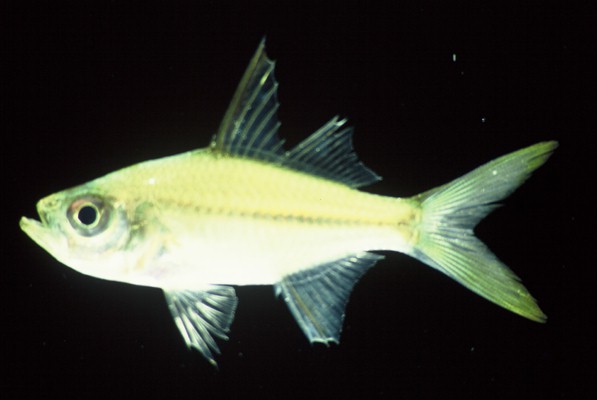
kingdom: Animalia
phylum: Chordata
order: Perciformes
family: Ambassidae
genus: Ambassis
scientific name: Ambassis ambassis
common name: Commerson's glassy perchlet
